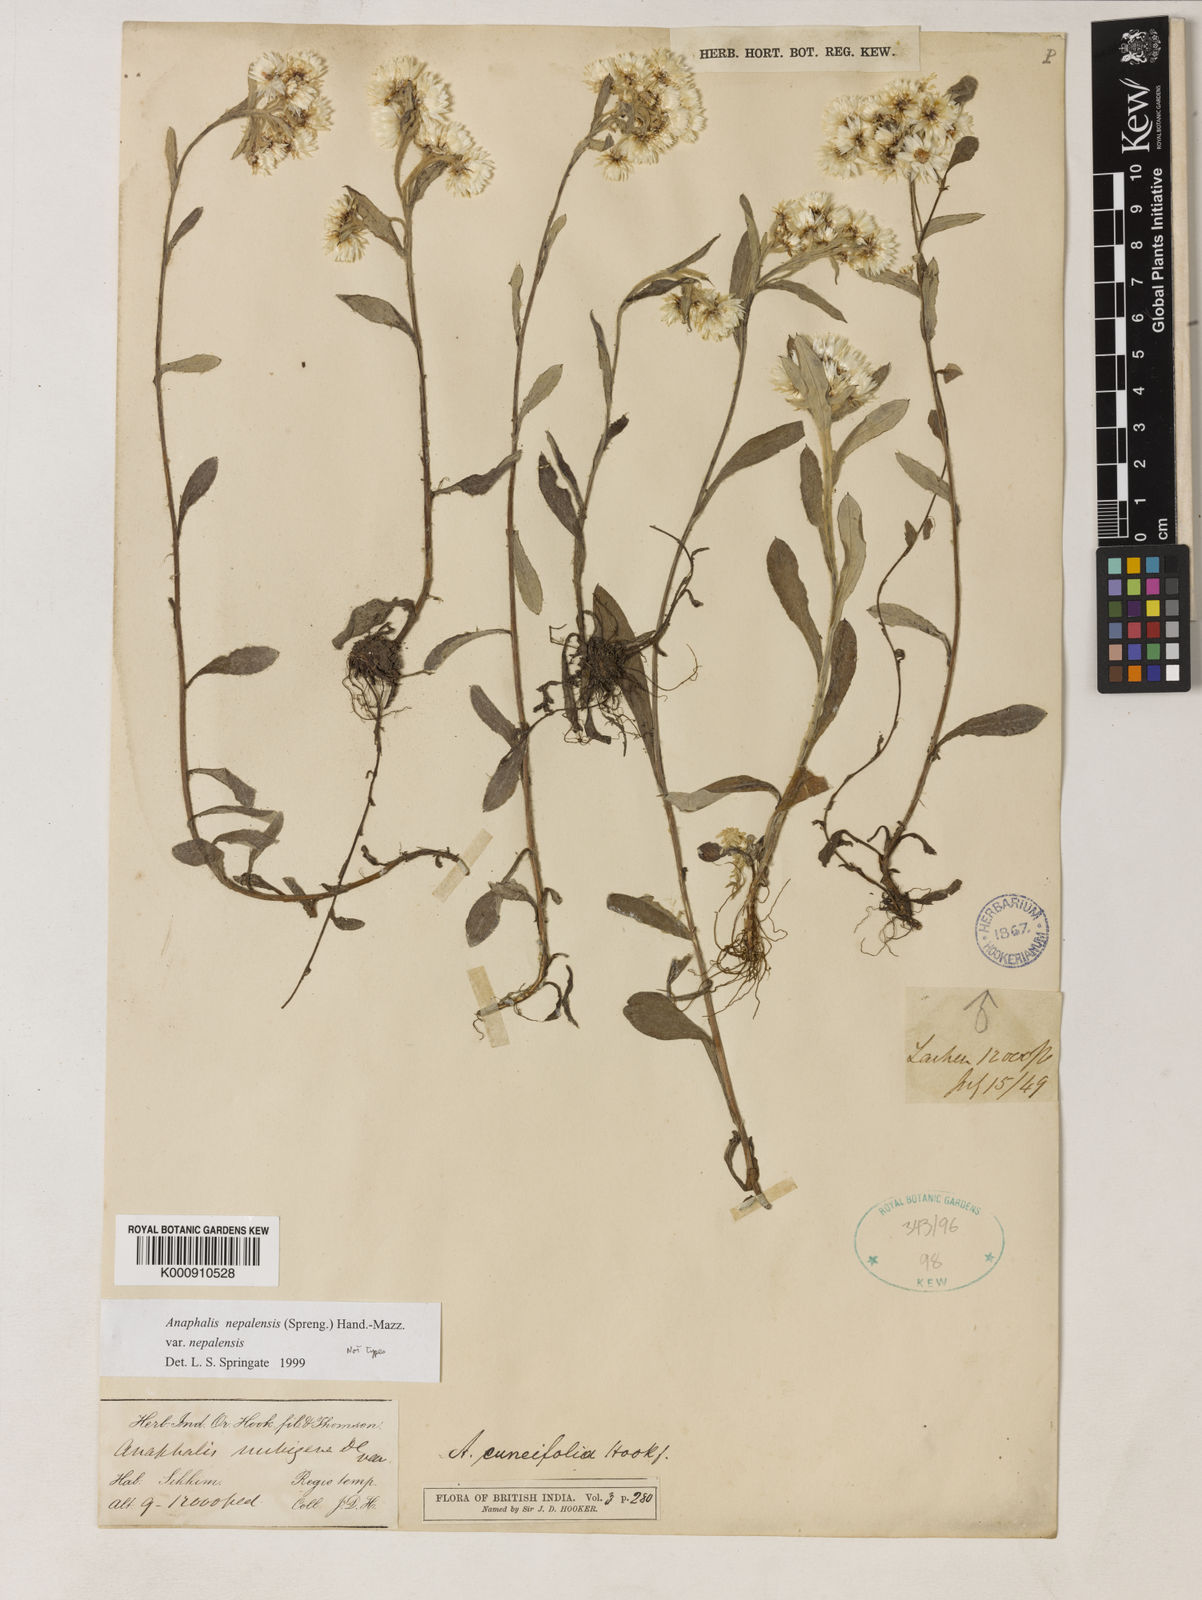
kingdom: Plantae
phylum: Tracheophyta
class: Magnoliopsida
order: Asterales
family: Asteraceae
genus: Anaphalis
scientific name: Anaphalis nepalensis
